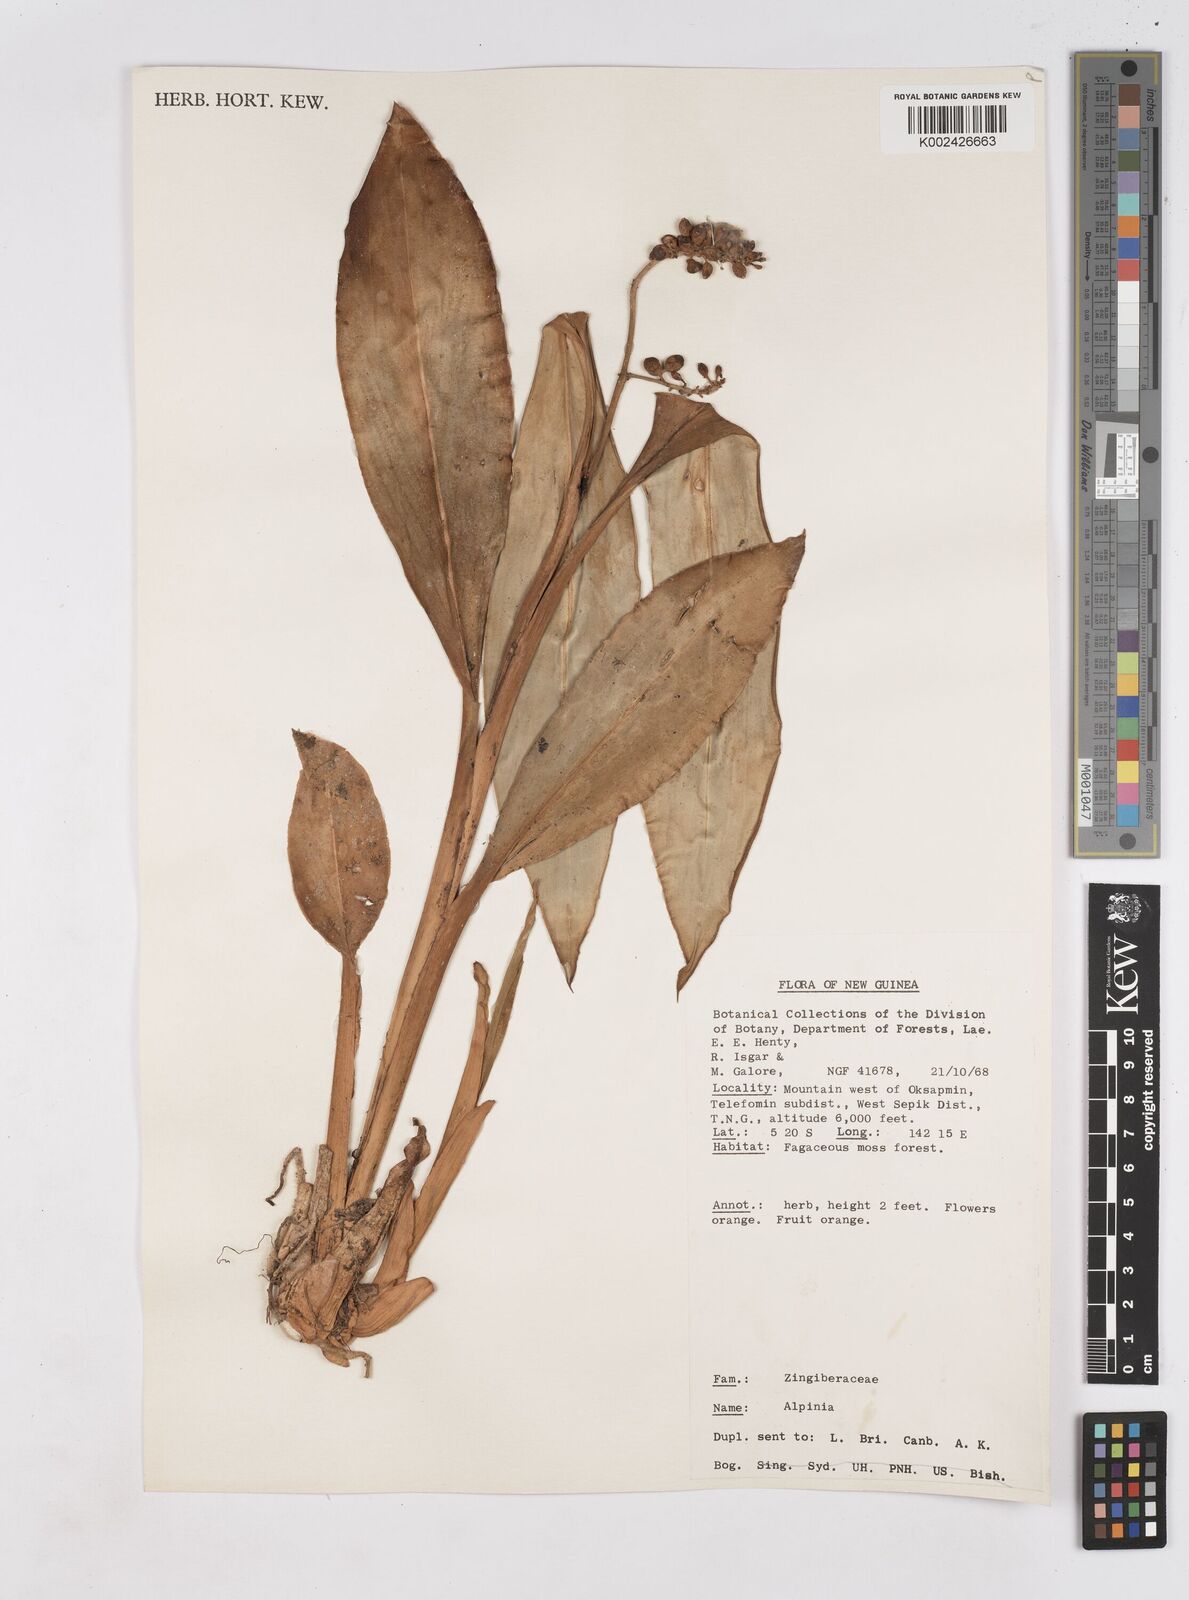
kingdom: Plantae
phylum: Tracheophyta
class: Liliopsida
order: Zingiberales
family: Zingiberaceae
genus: Riedelia
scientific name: Riedelia
